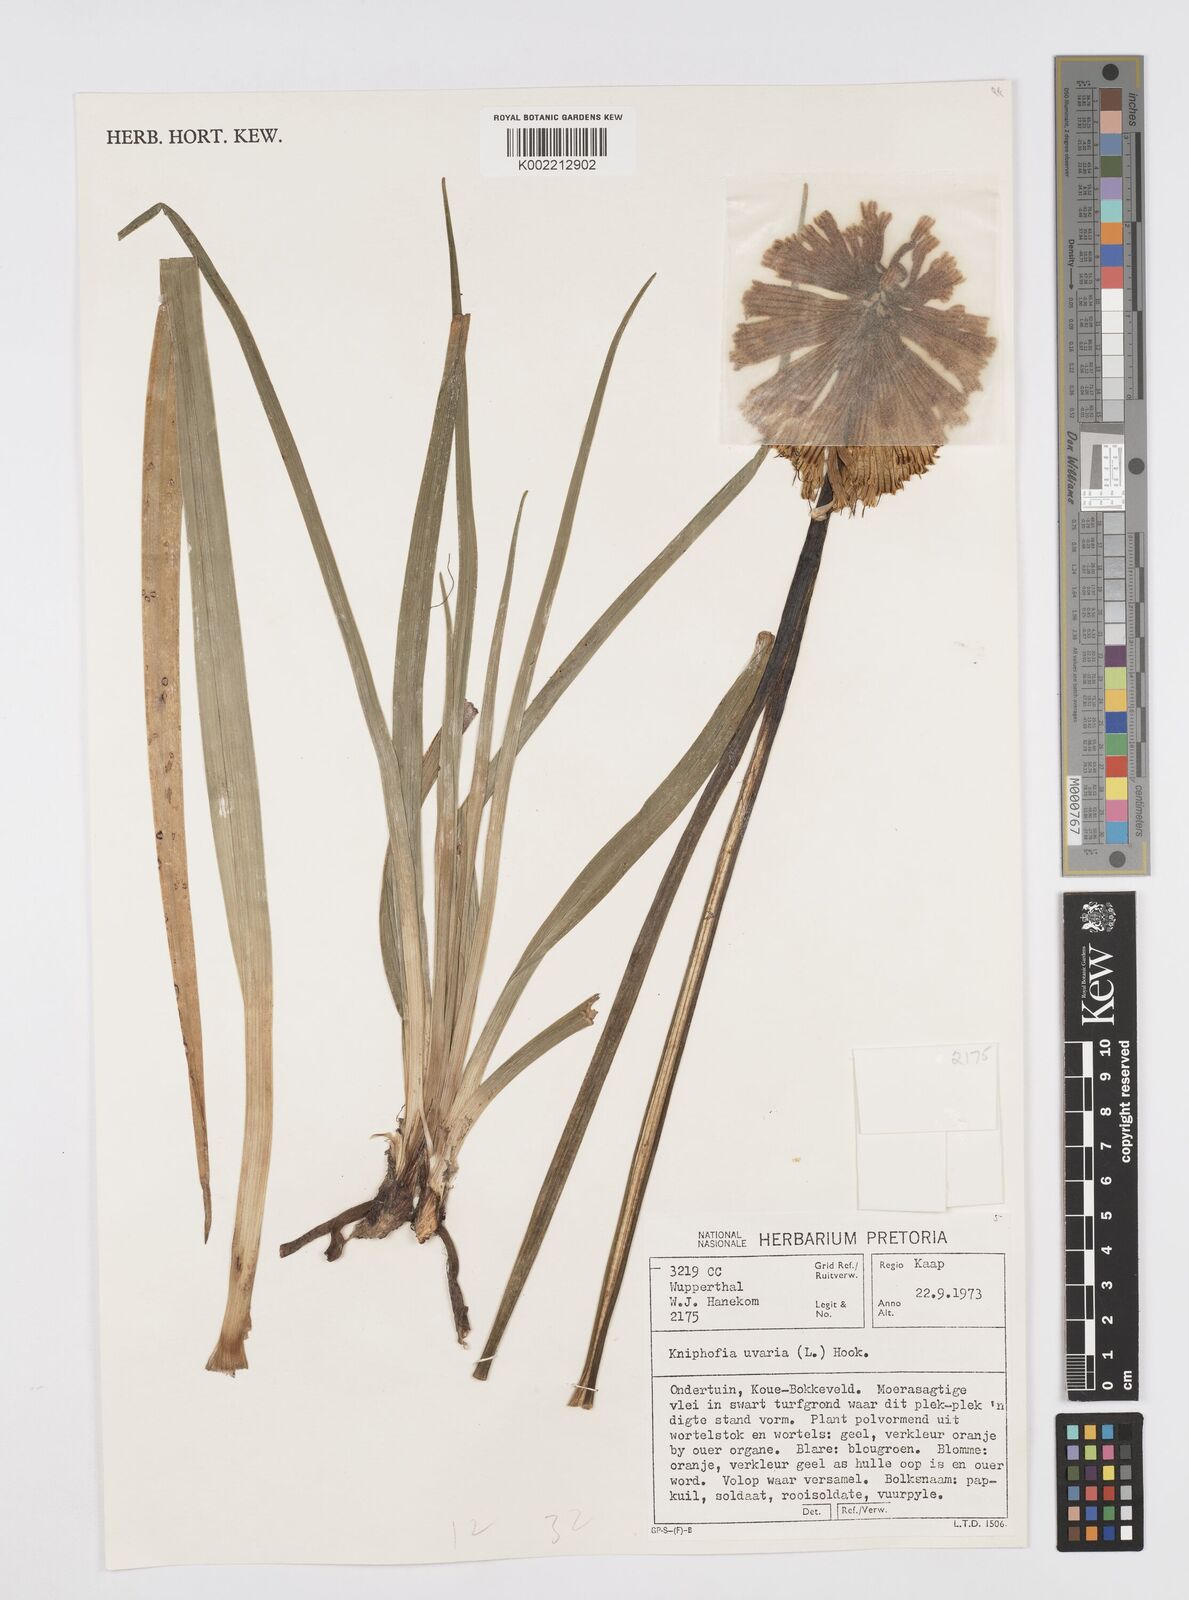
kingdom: Plantae
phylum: Tracheophyta
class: Liliopsida
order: Asparagales
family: Asphodelaceae
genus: Kniphofia
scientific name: Kniphofia uvaria
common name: Red-hot-poker
